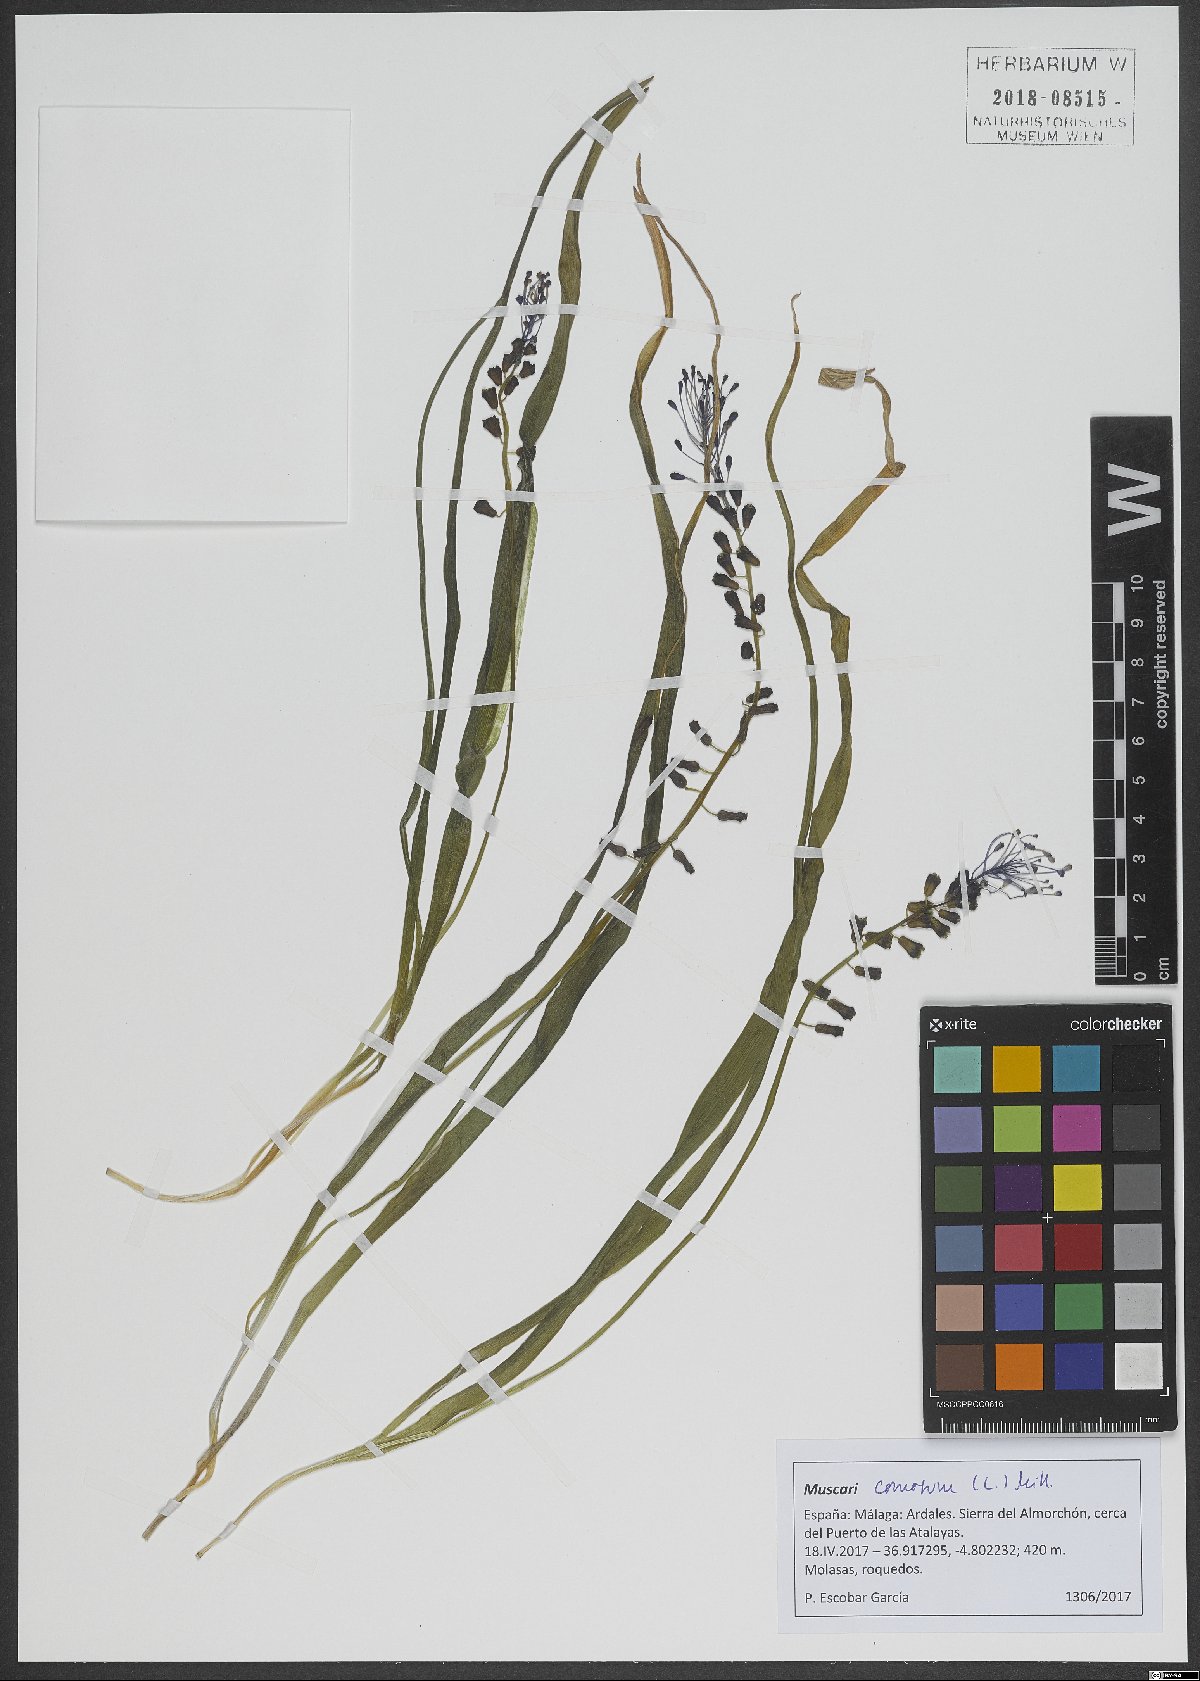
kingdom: Plantae
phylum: Tracheophyta
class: Liliopsida
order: Asparagales
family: Asparagaceae
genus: Muscari
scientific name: Muscari comosum
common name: Tassel hyacinth
